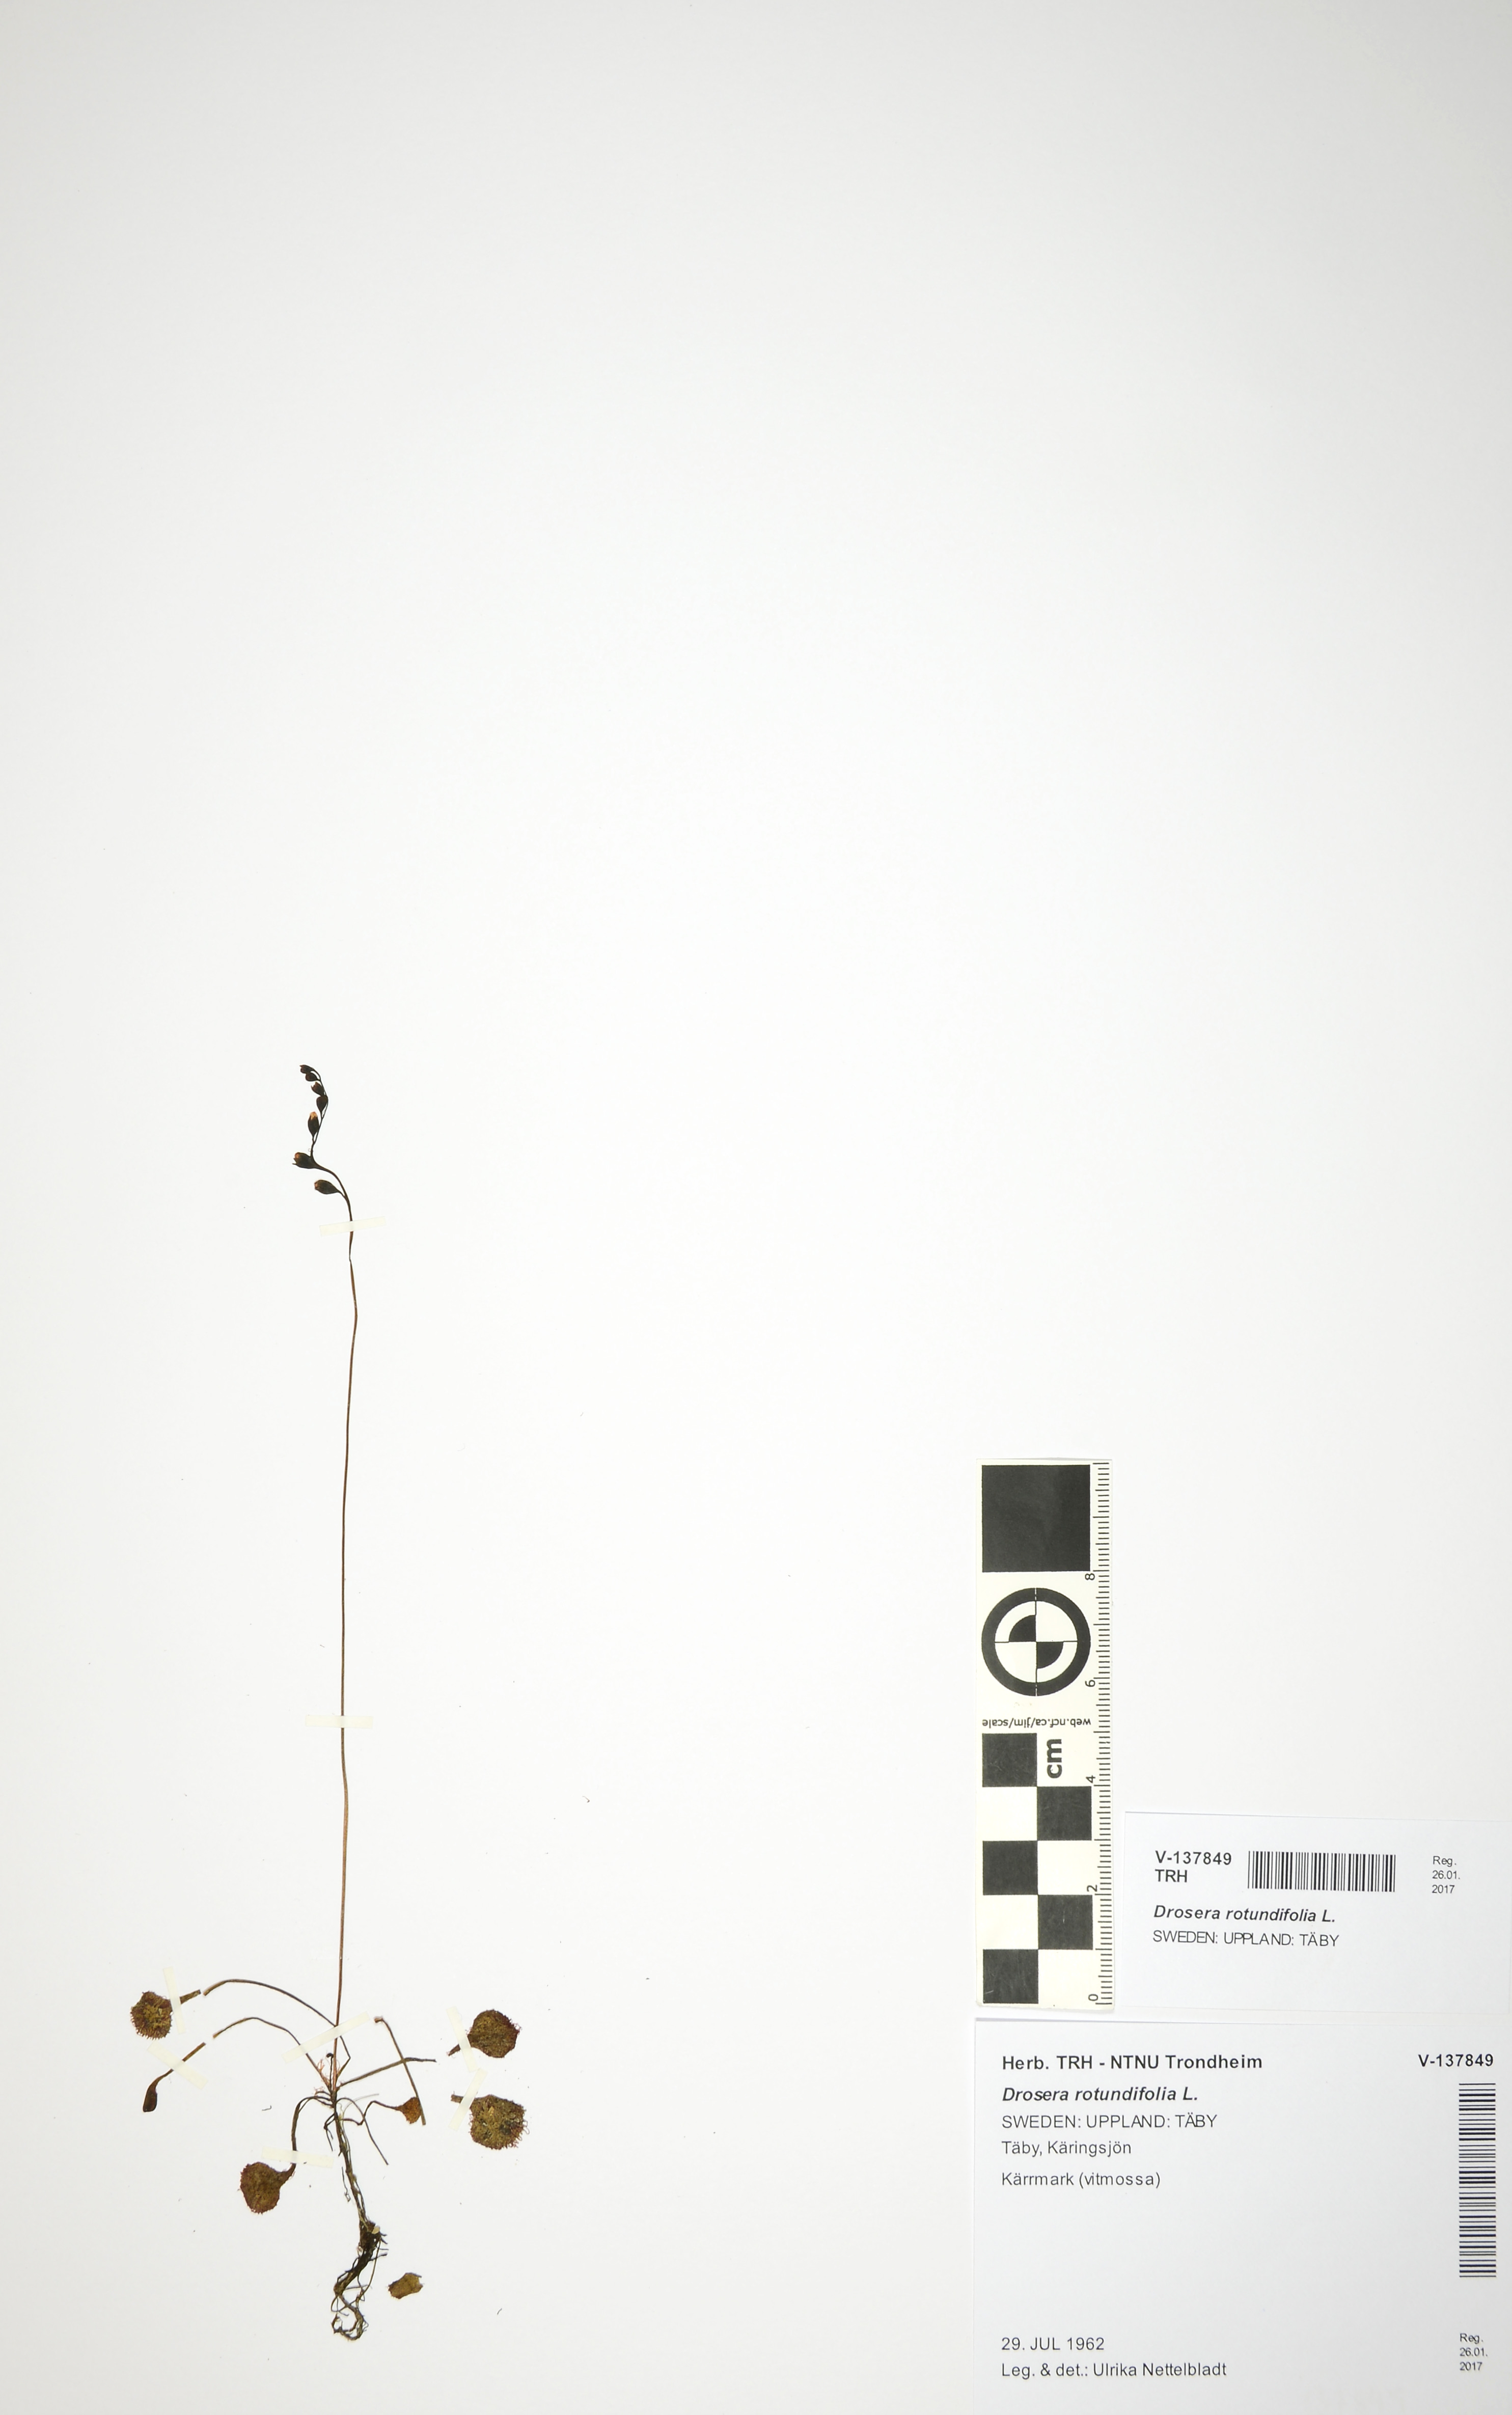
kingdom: Plantae
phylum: Tracheophyta
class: Magnoliopsida
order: Caryophyllales
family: Droseraceae
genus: Drosera
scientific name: Drosera rotundifolia
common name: Round-leaved sundew
